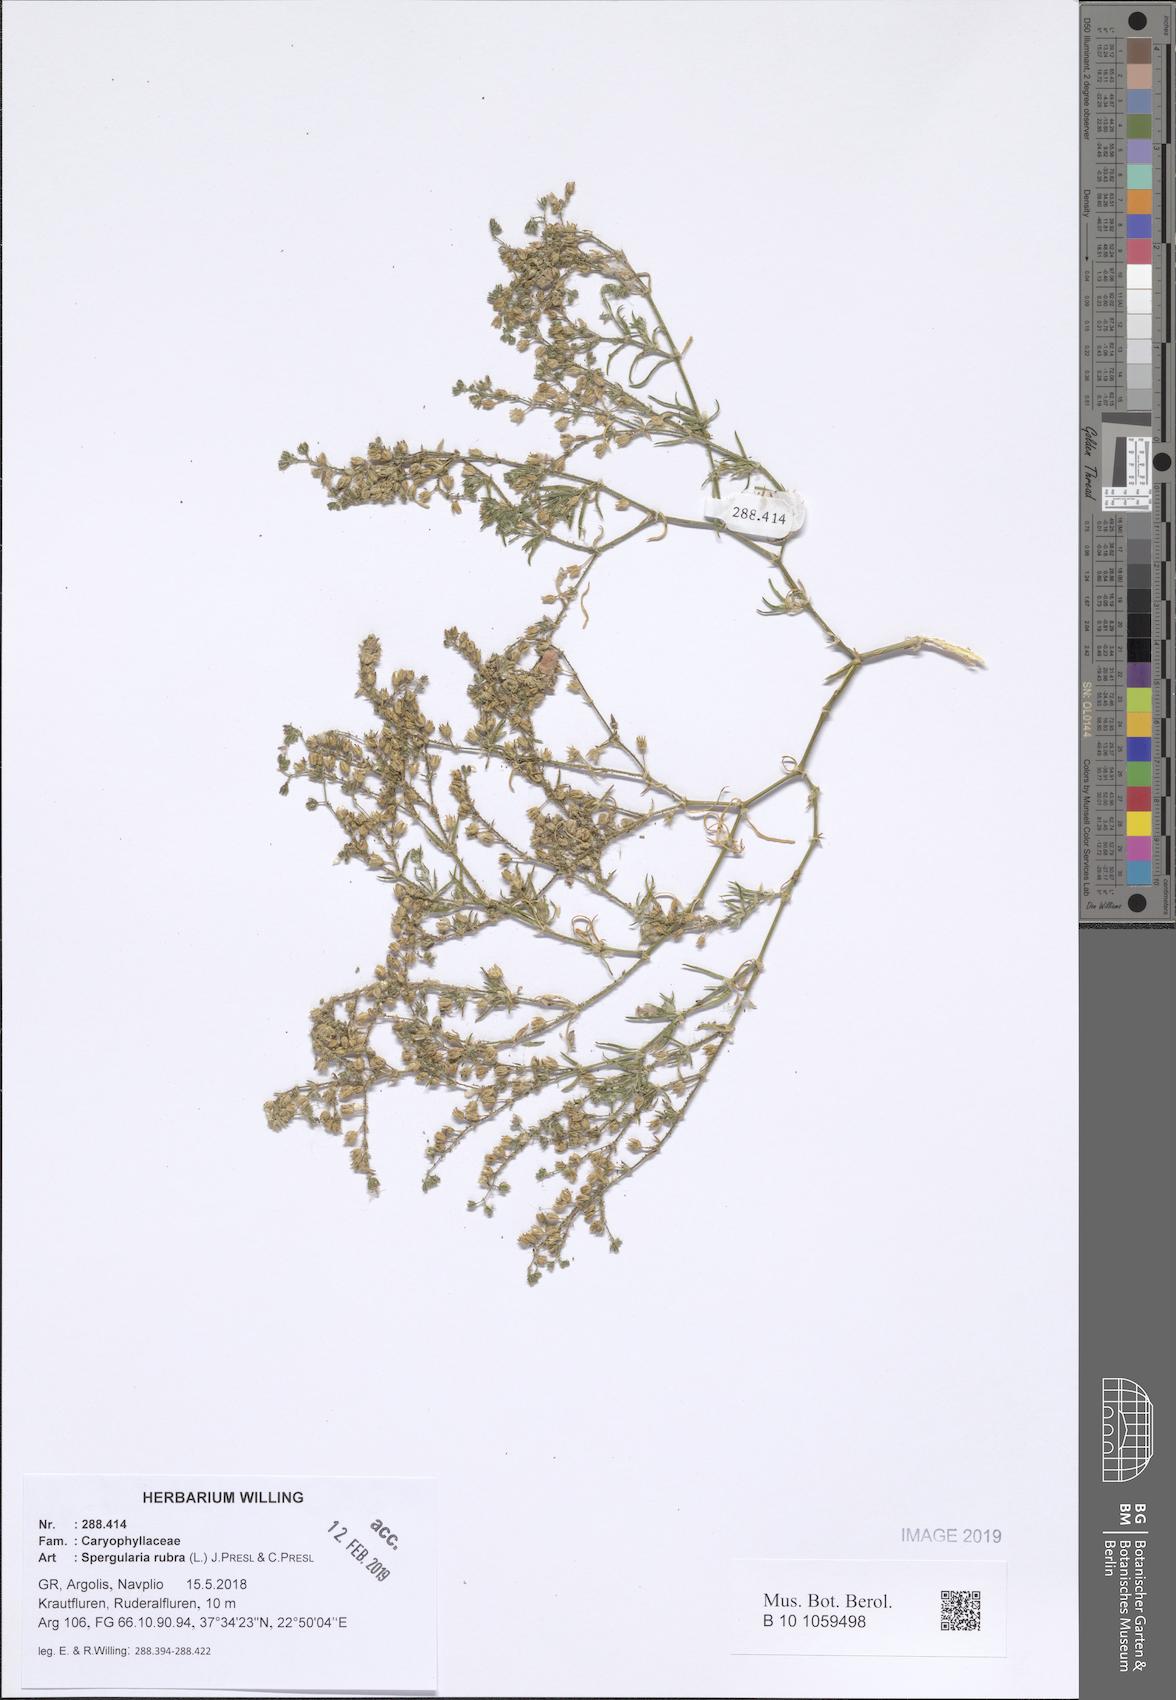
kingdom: Plantae
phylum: Tracheophyta
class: Magnoliopsida
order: Caryophyllales
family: Caryophyllaceae
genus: Spergularia
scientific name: Spergularia rubra
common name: Red sand-spurrey
